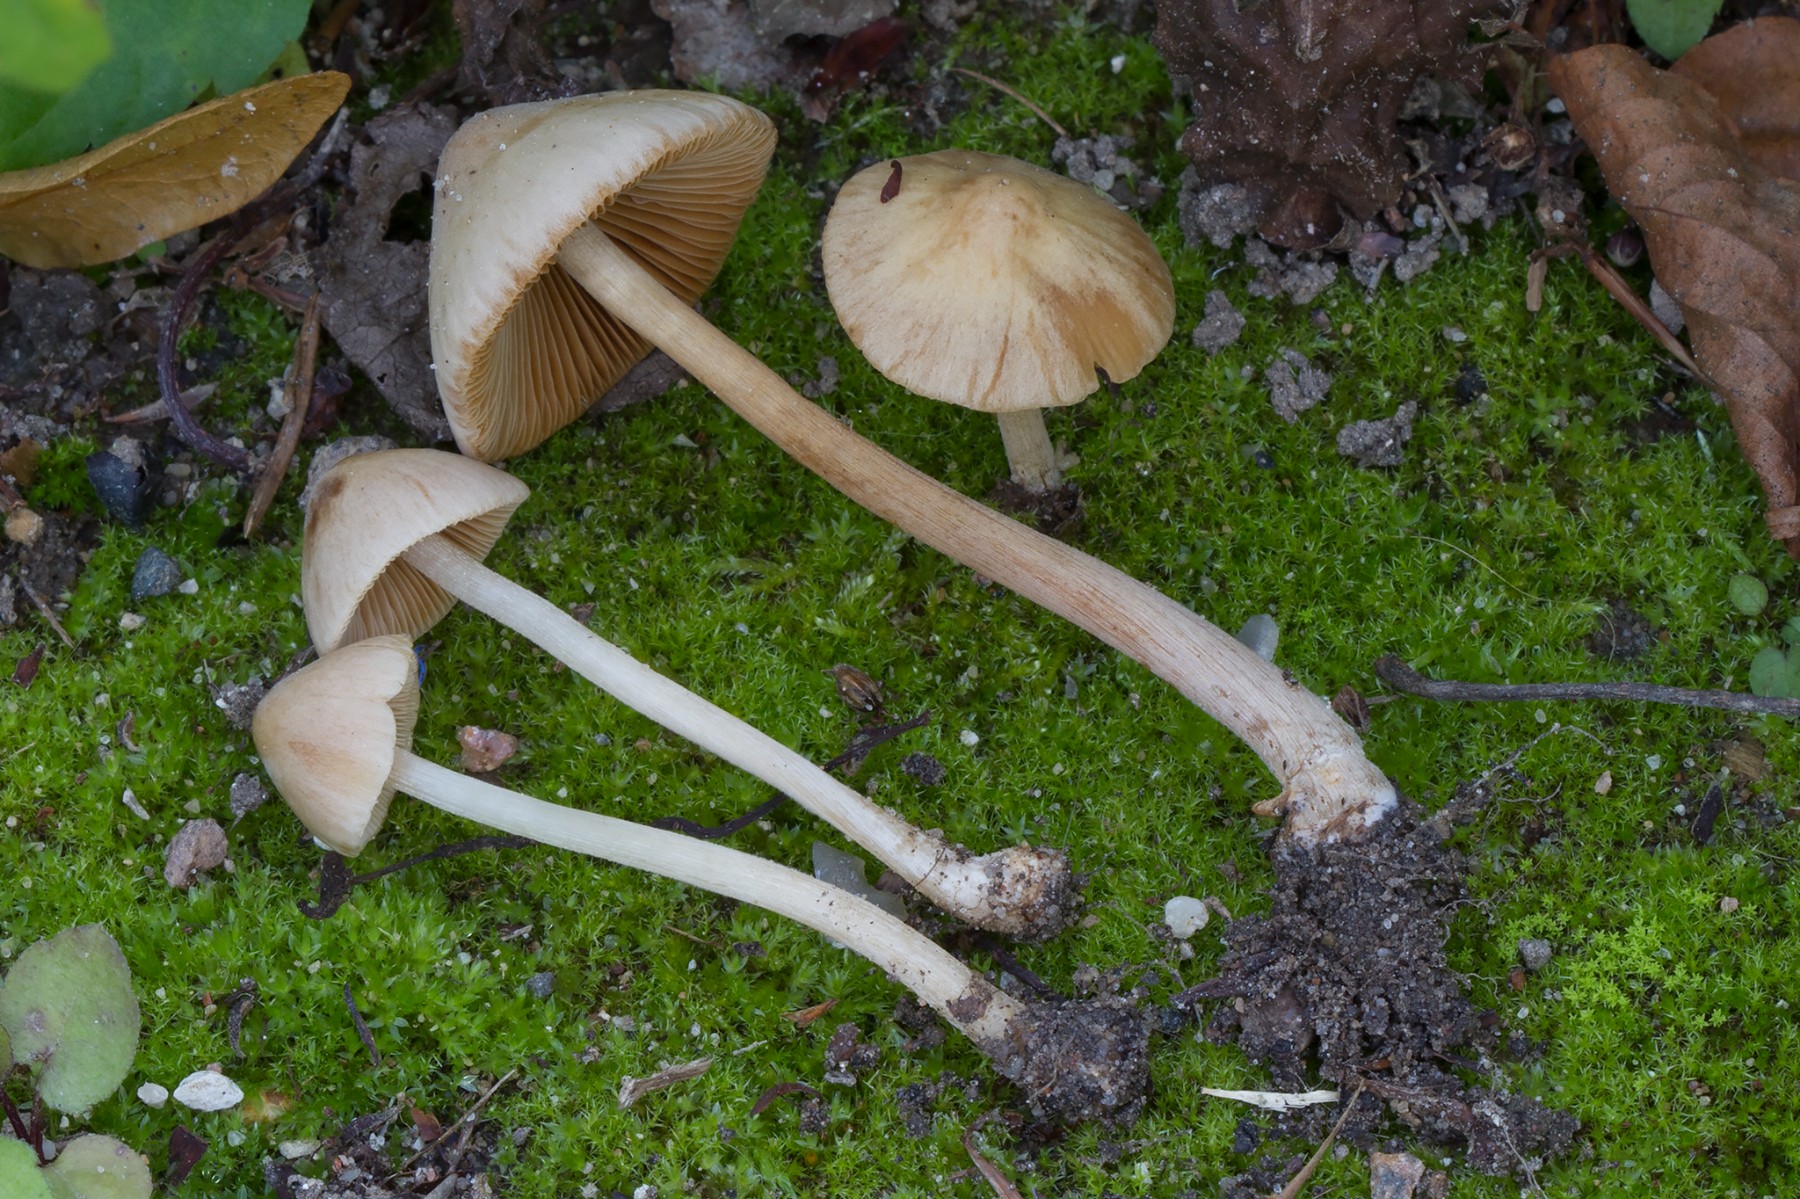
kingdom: Fungi
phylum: Basidiomycota
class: Agaricomycetes
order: Agaricales
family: Bolbitiaceae
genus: Conocybe
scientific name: Conocybe inocybeoides
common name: knold-keglehat
